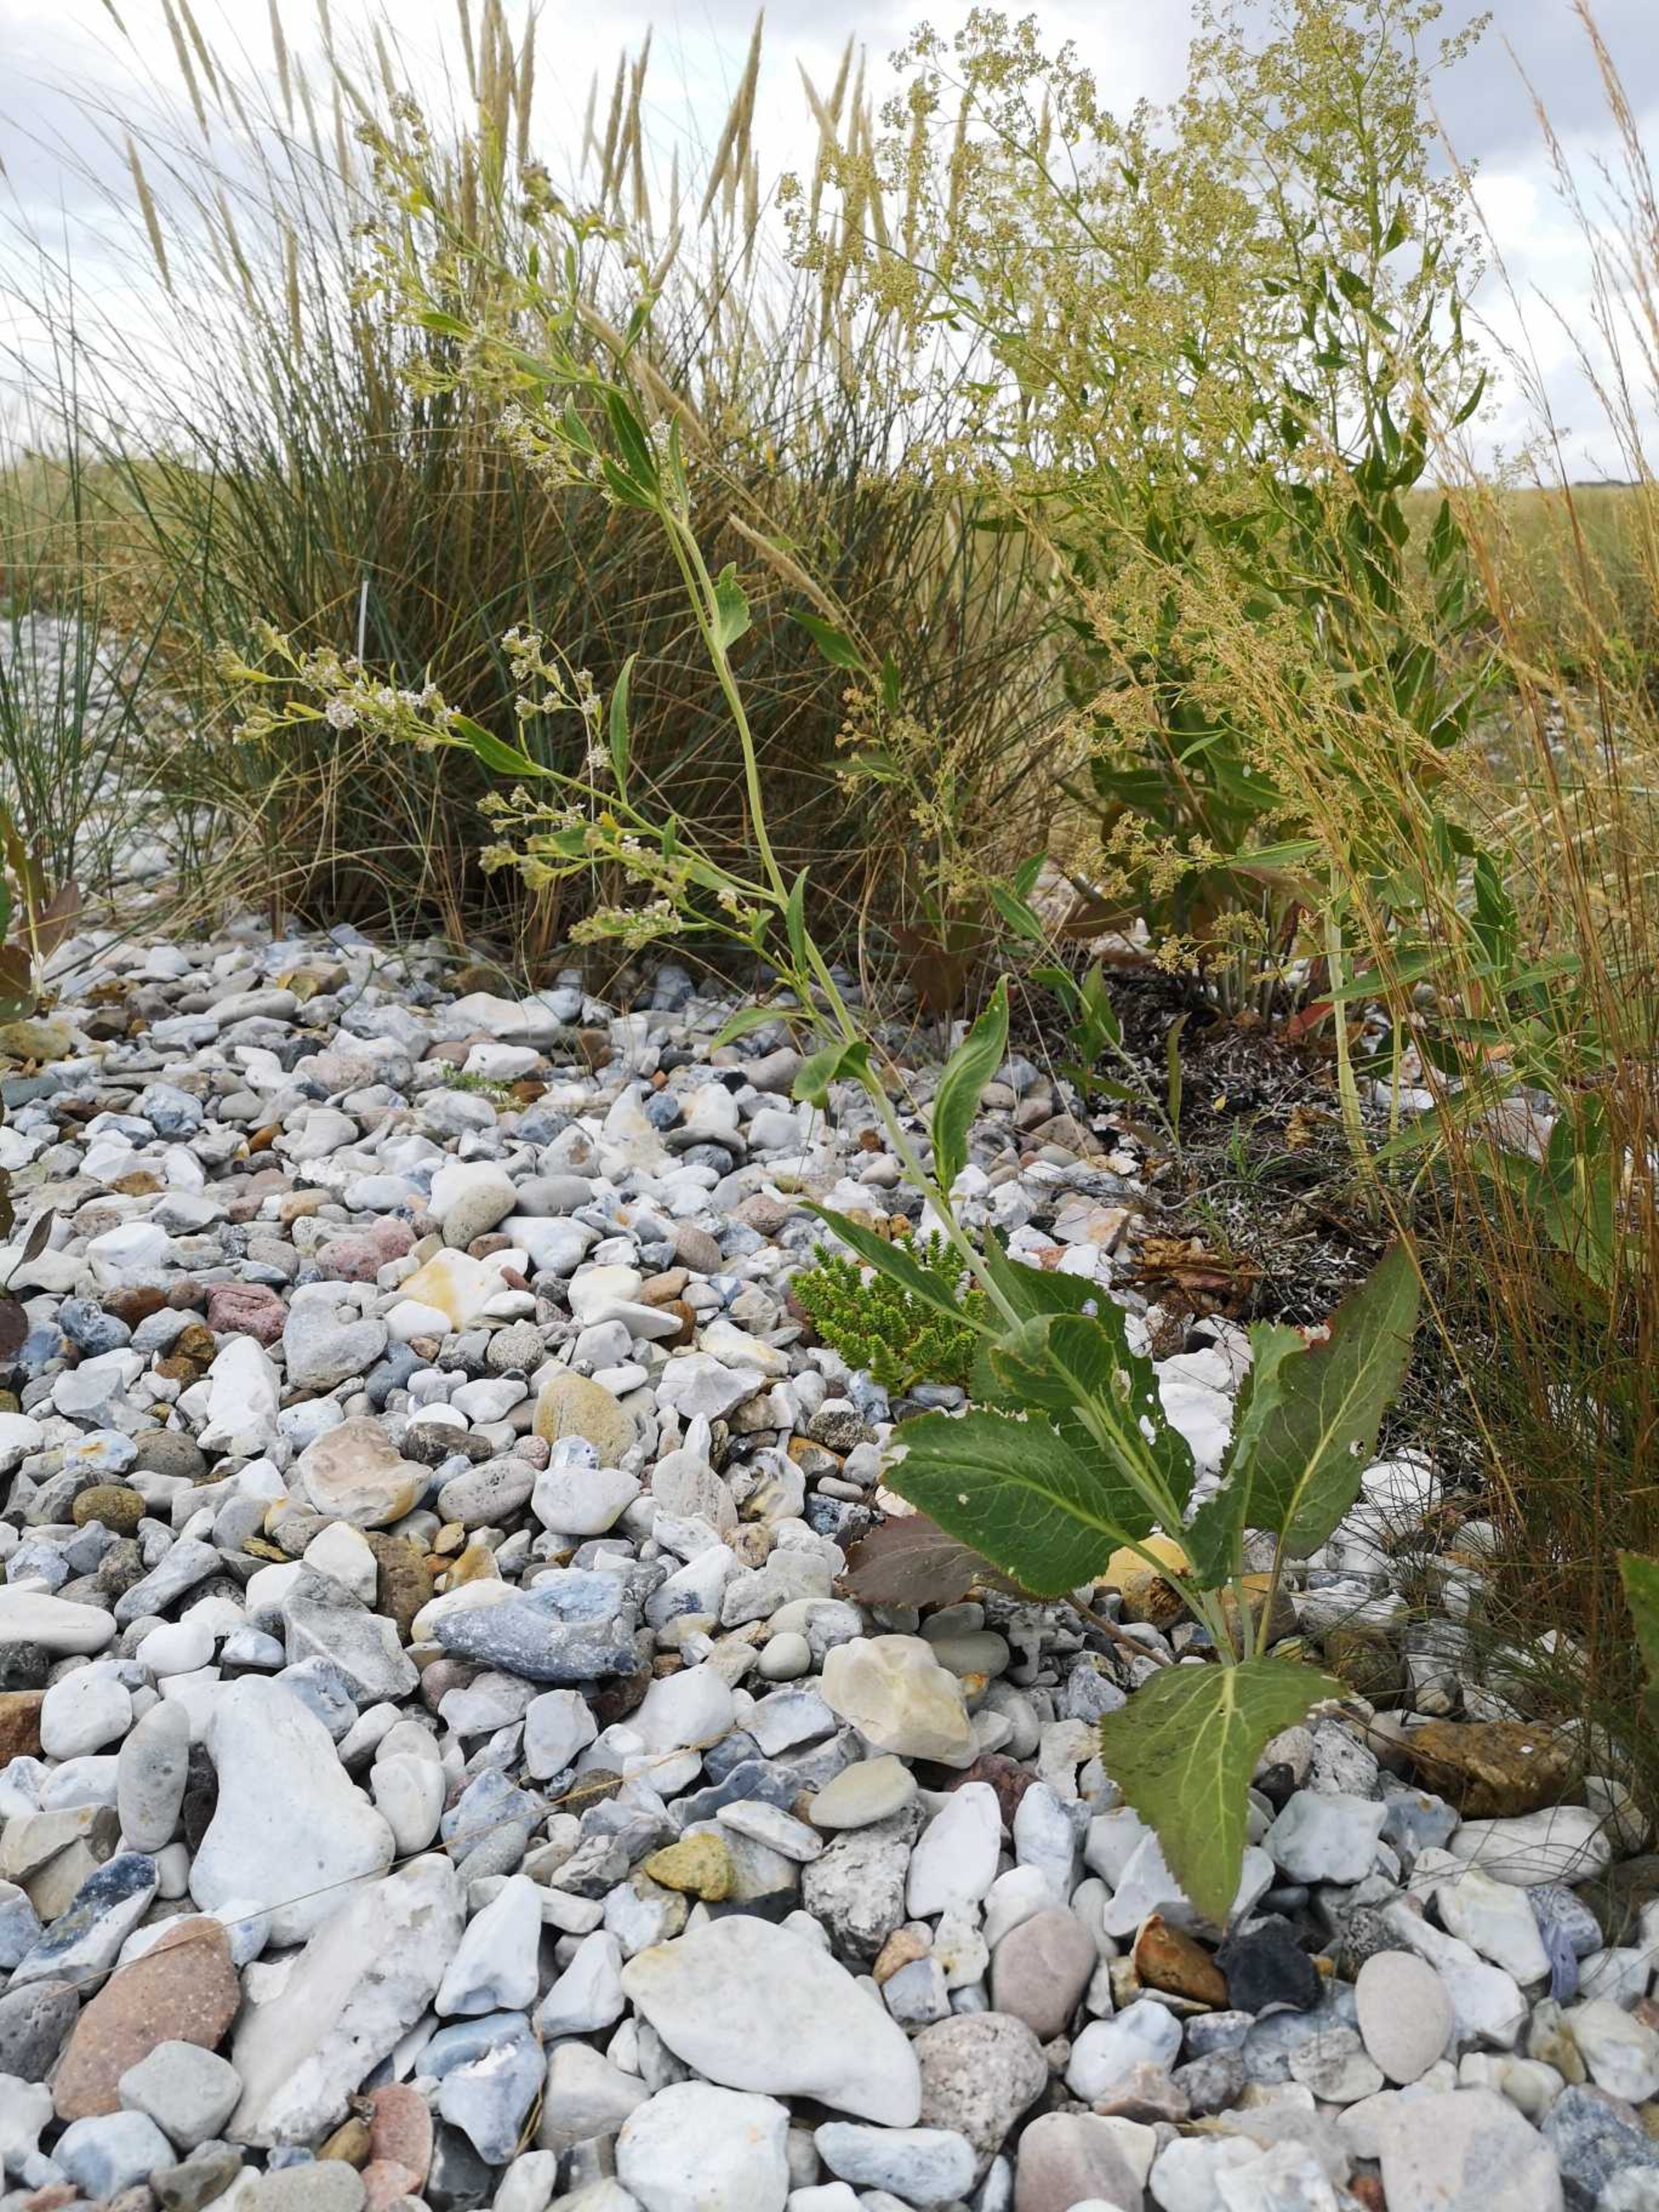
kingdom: Plantae
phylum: Tracheophyta
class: Magnoliopsida
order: Brassicales
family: Brassicaceae
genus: Lepidium
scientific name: Lepidium latifolium
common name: Strand-karse
